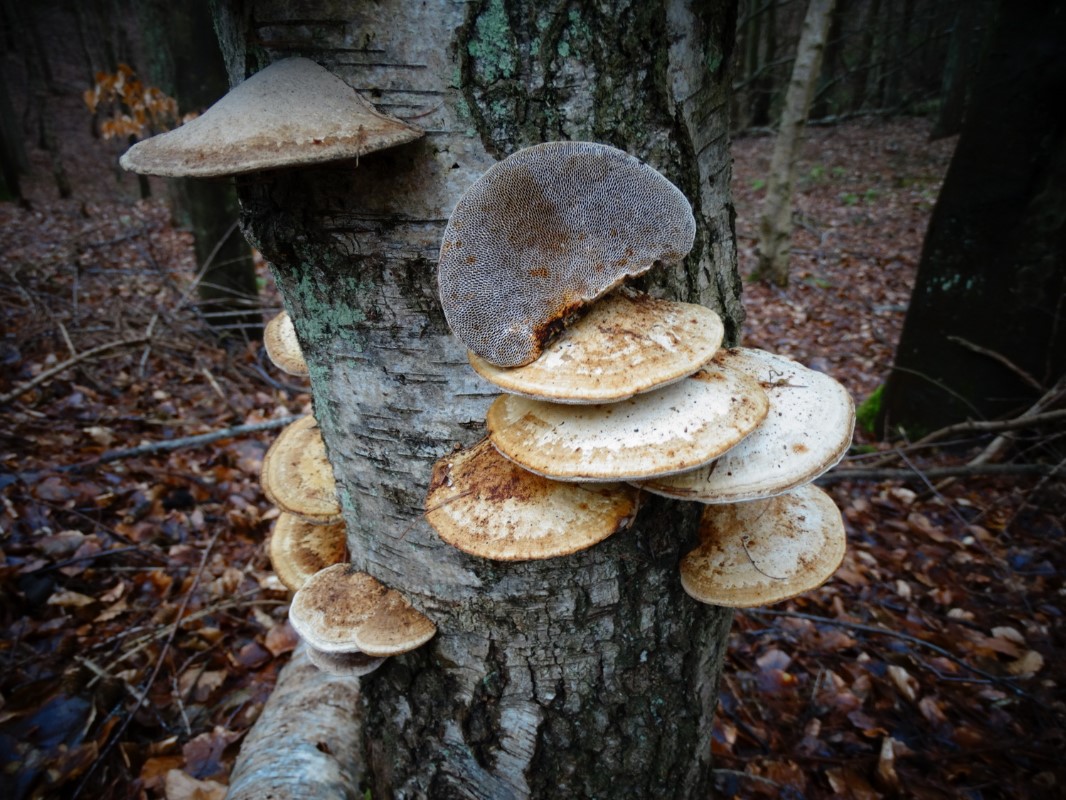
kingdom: Fungi
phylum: Basidiomycota
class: Agaricomycetes
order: Polyporales
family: Polyporaceae
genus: Daedaleopsis
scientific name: Daedaleopsis confragosa
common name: rødmende læderporesvamp
